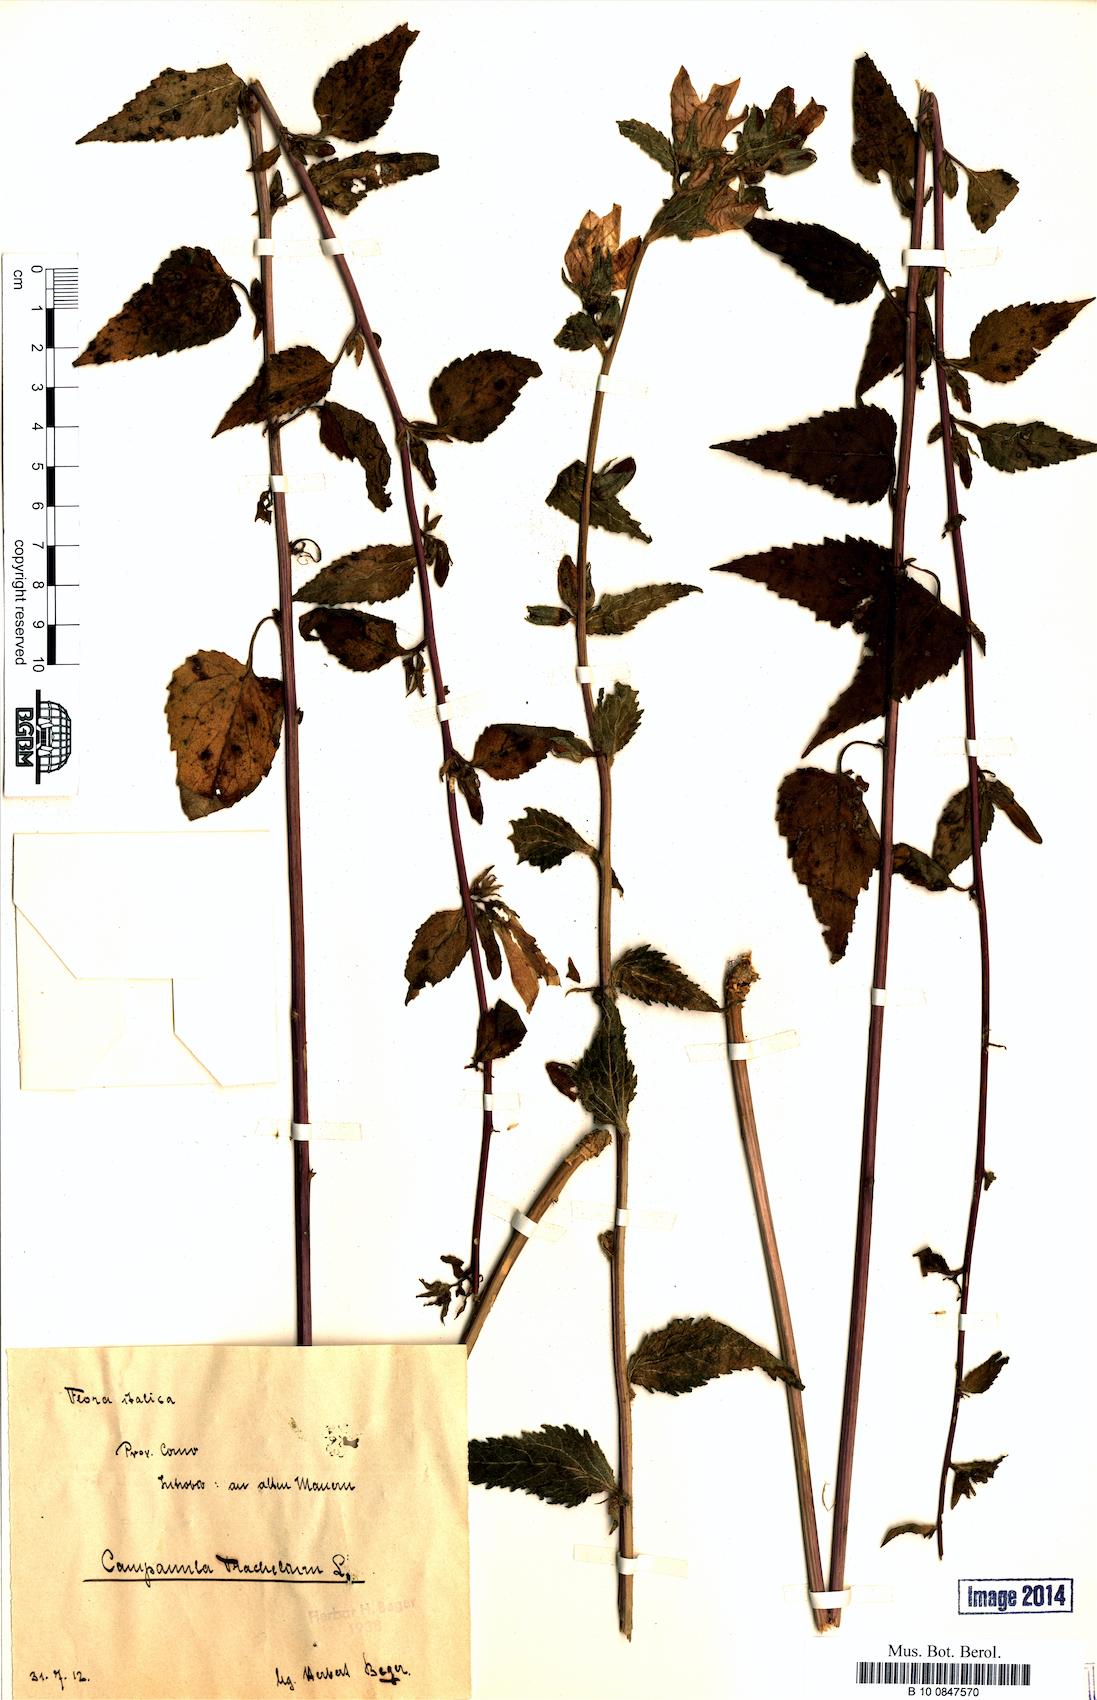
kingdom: Plantae
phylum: Tracheophyta
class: Magnoliopsida
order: Asterales
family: Campanulaceae
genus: Campanula
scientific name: Campanula trachelium
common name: Nettle-leaved bellflower
